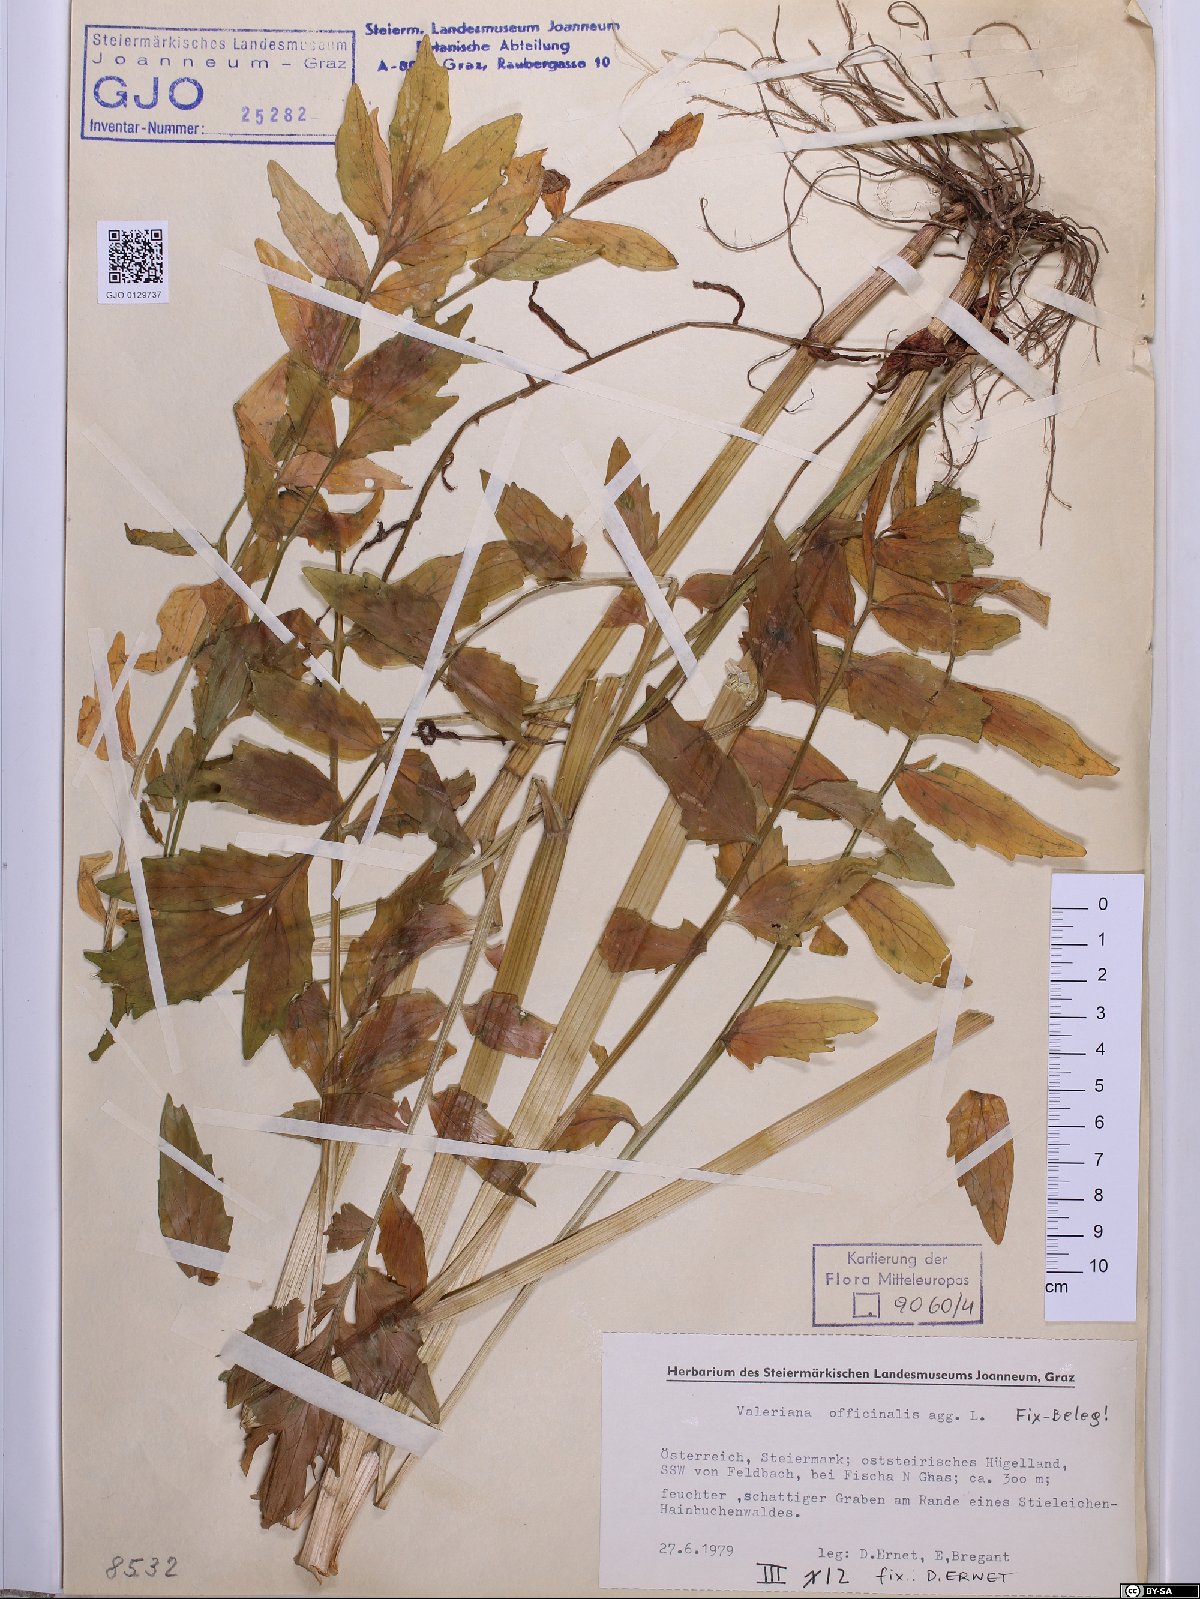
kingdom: Plantae
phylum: Tracheophyta
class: Magnoliopsida
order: Dipsacales
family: Caprifoliaceae
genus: Valeriana
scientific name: Valeriana officinalis
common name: Common valerian
